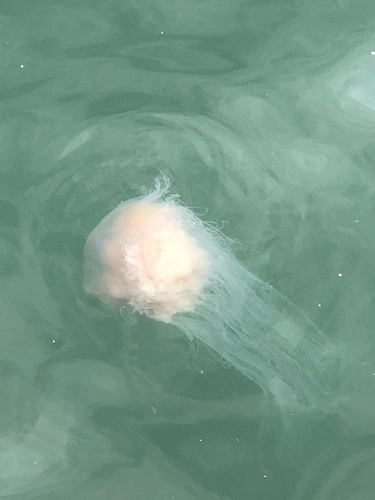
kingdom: Animalia
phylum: Cnidaria
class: Scyphozoa
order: Semaeostomeae
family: Cyaneidae
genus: Cyanea
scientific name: Cyanea nozakii
